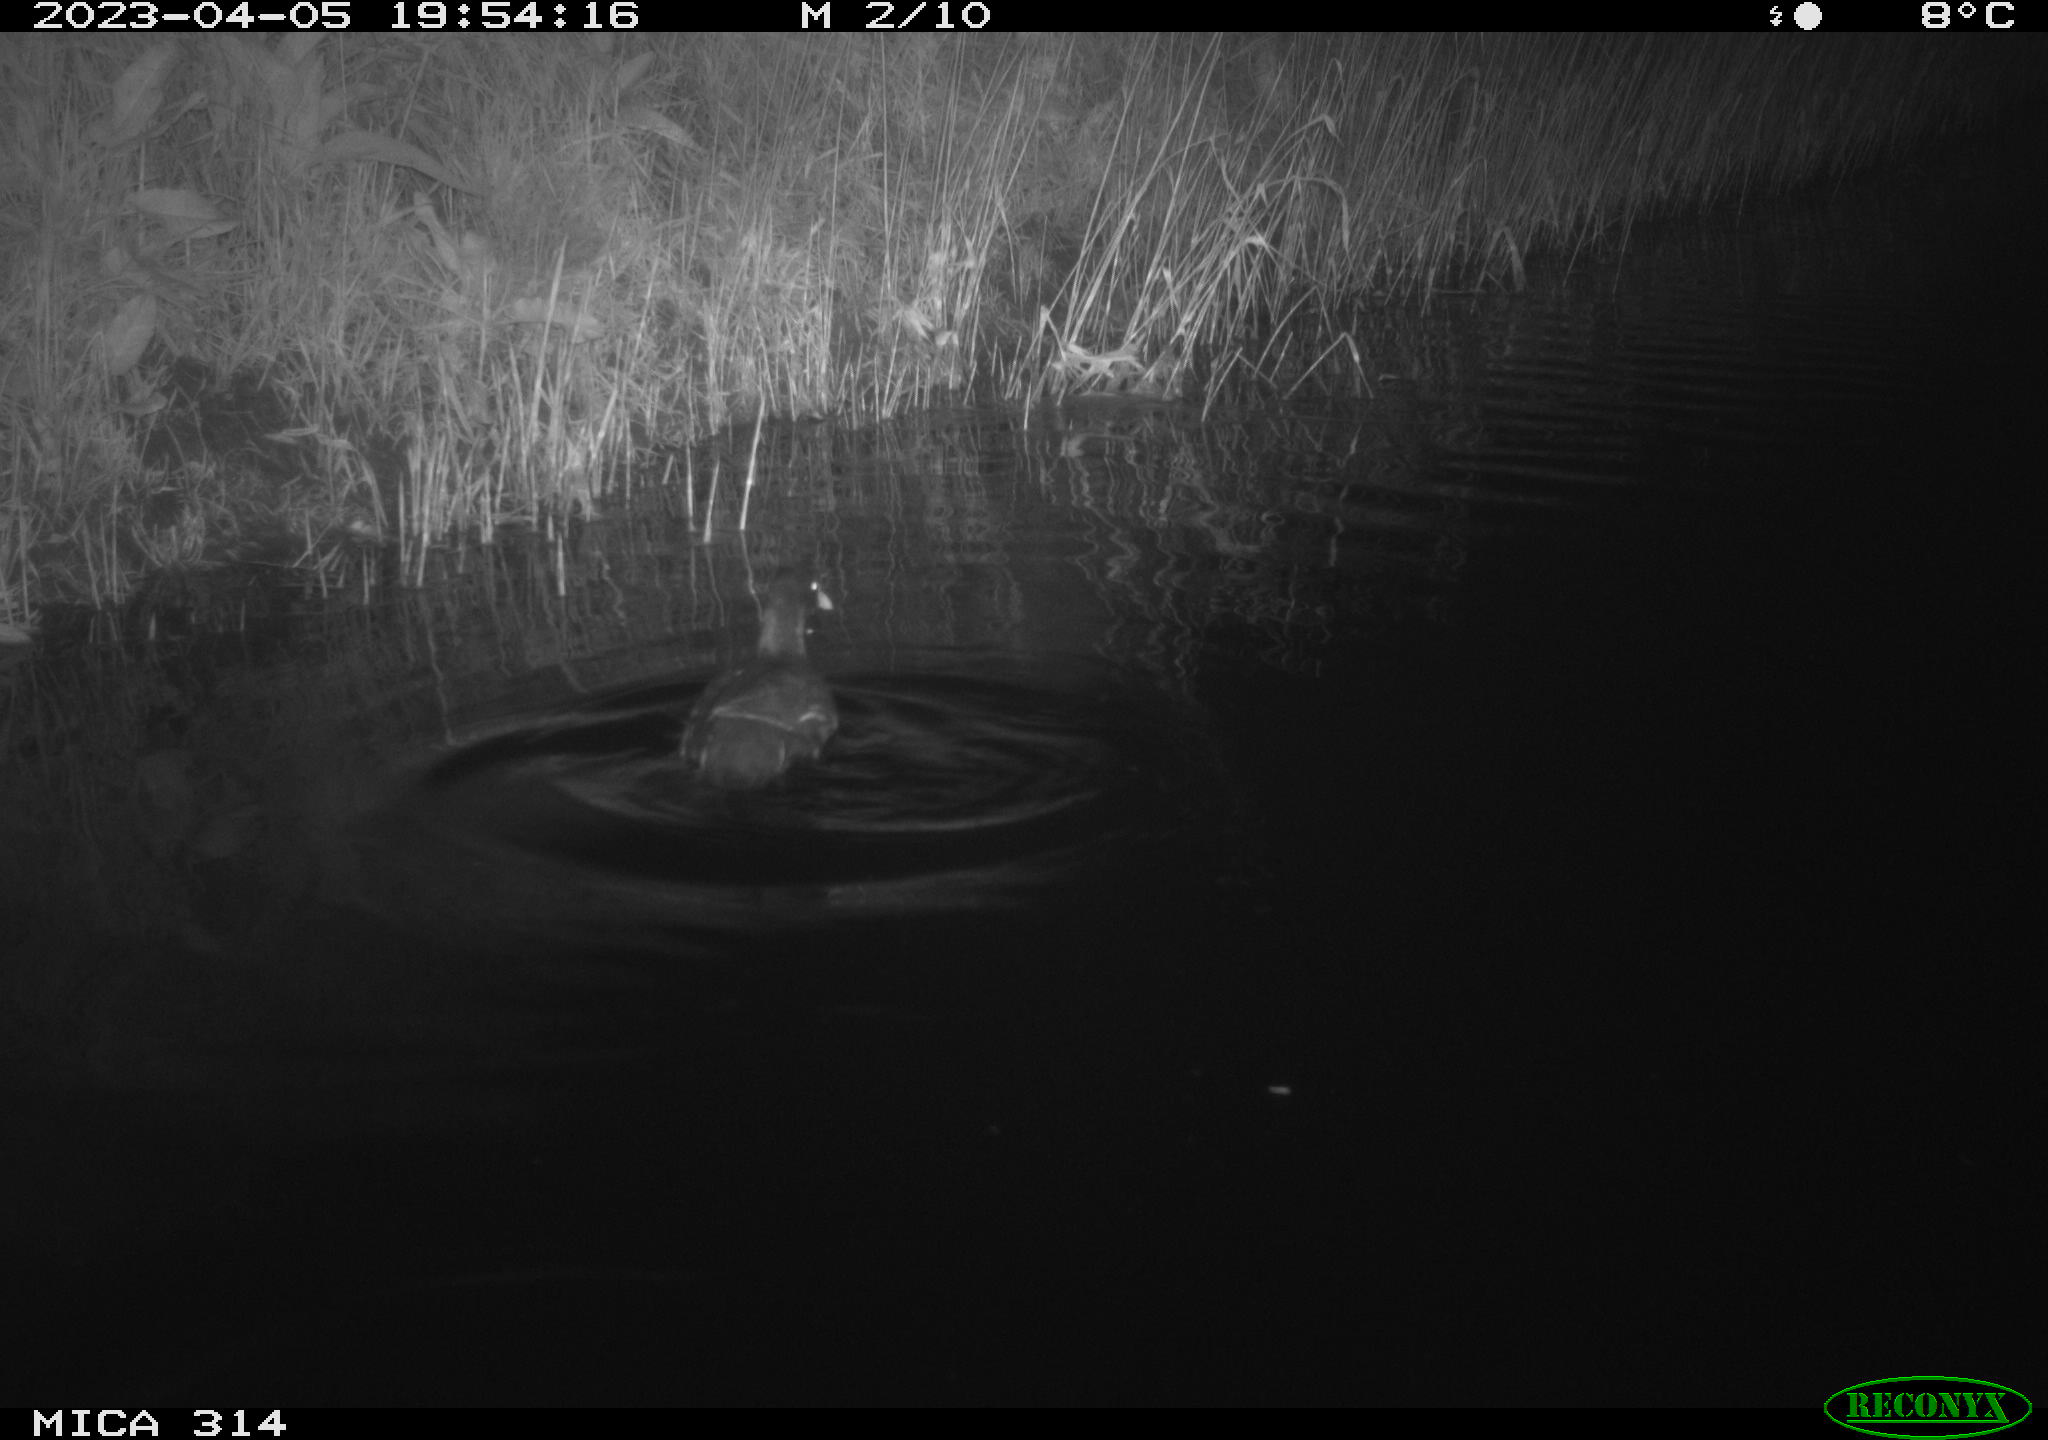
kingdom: Animalia
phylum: Chordata
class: Aves
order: Gruiformes
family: Rallidae
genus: Gallinula
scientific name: Gallinula chloropus
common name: Common moorhen
